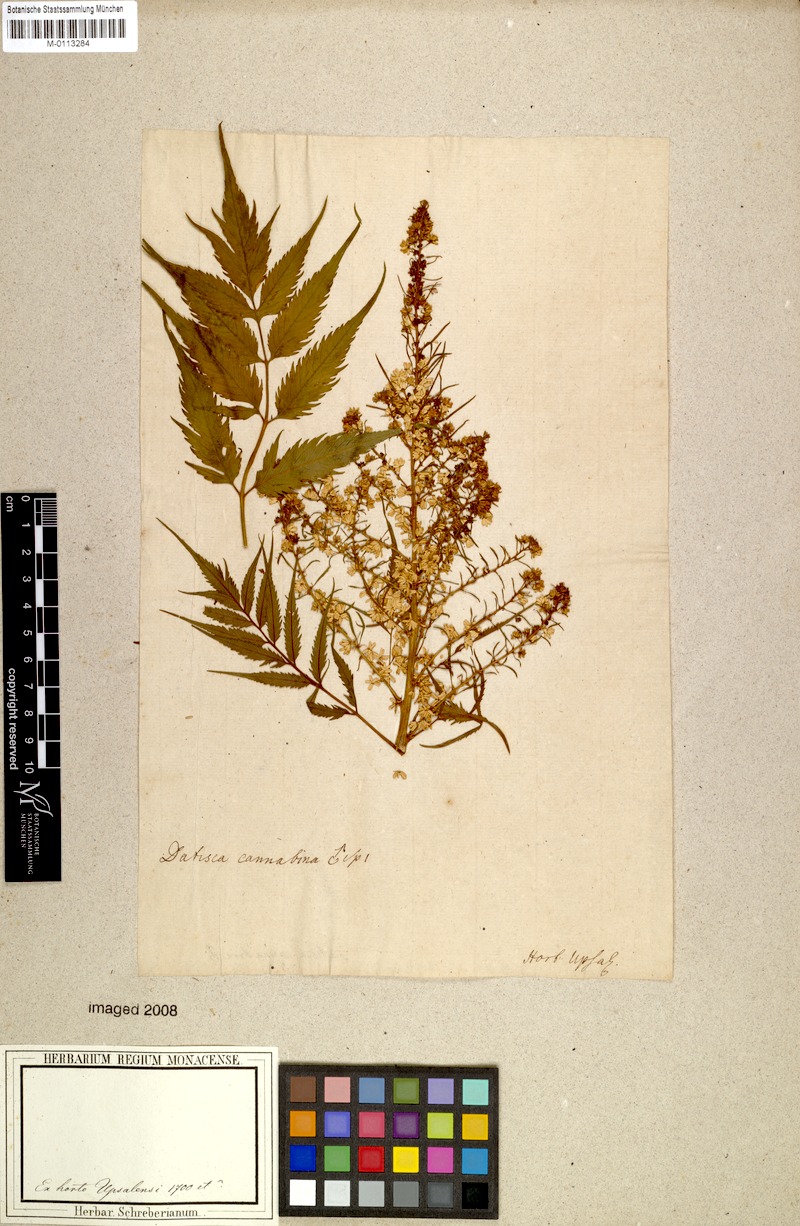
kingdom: Plantae
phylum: Tracheophyta
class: Magnoliopsida
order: Cucurbitales
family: Datiscaceae
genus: Datisca
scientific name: Datisca cannabina
